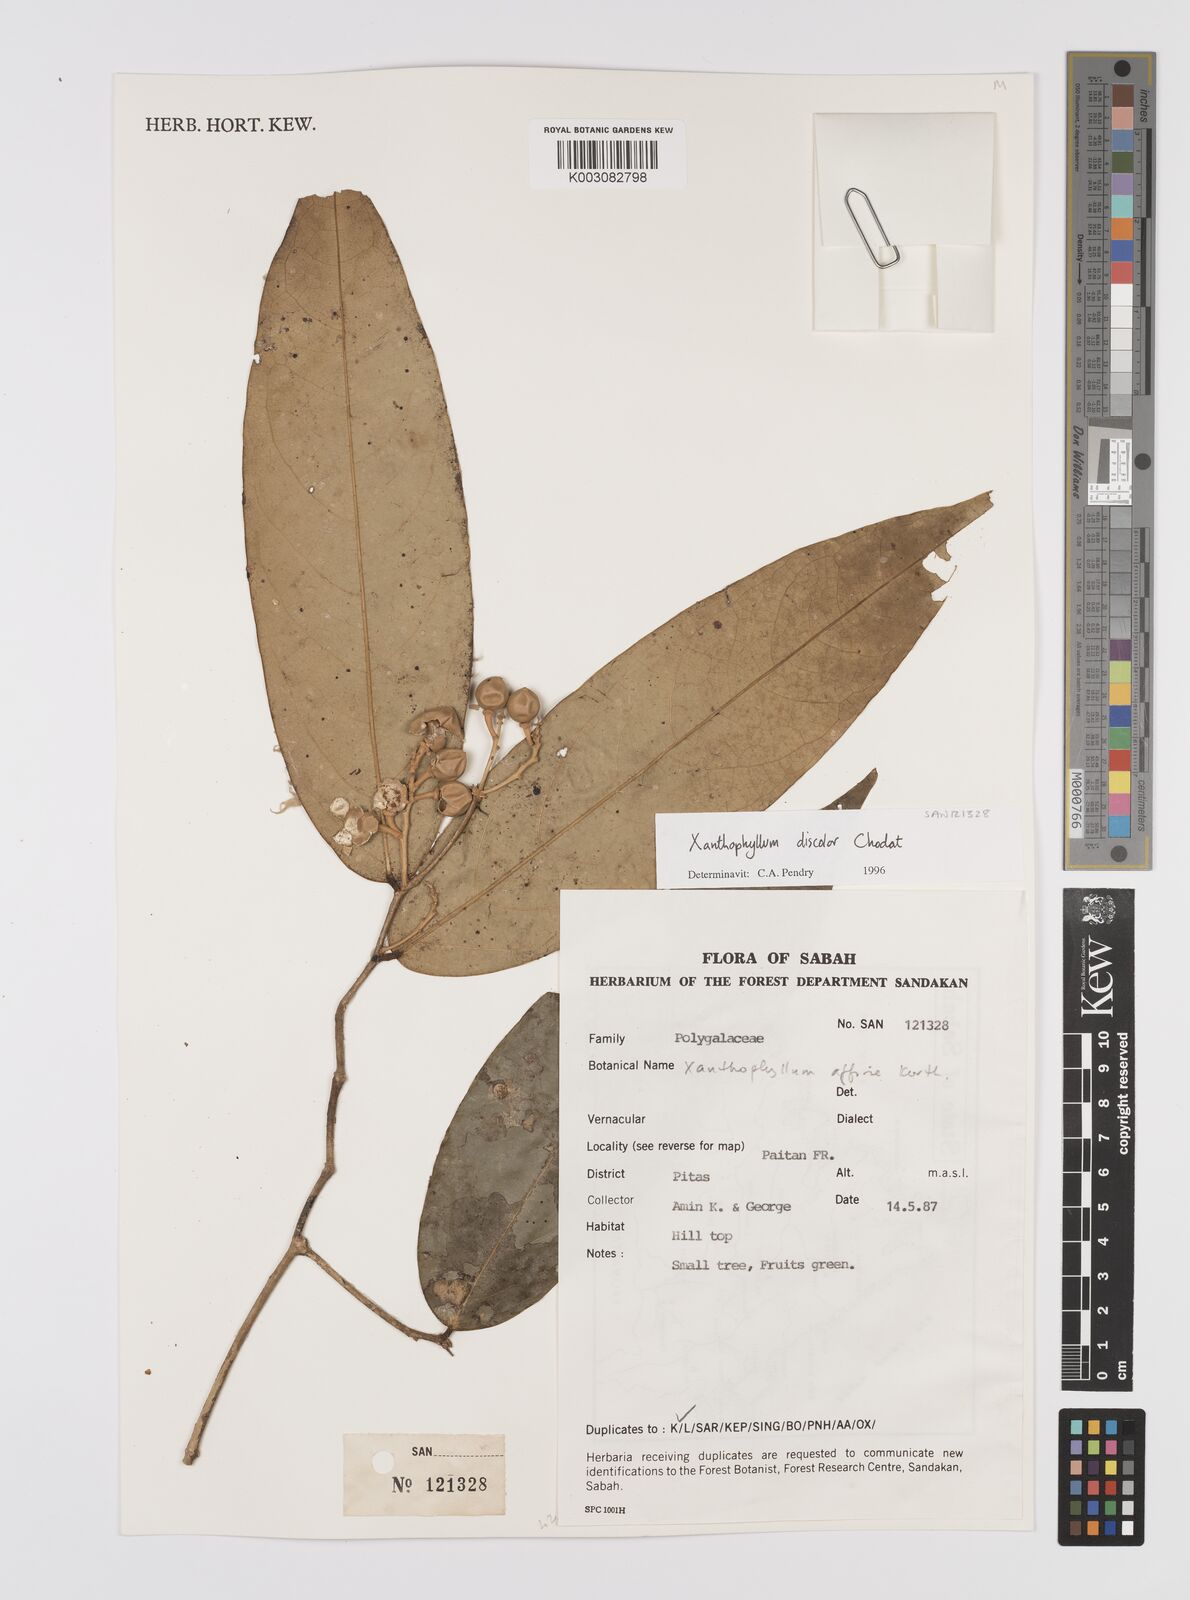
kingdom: Plantae
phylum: Tracheophyta
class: Magnoliopsida
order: Fabales
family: Polygalaceae
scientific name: Polygalaceae
